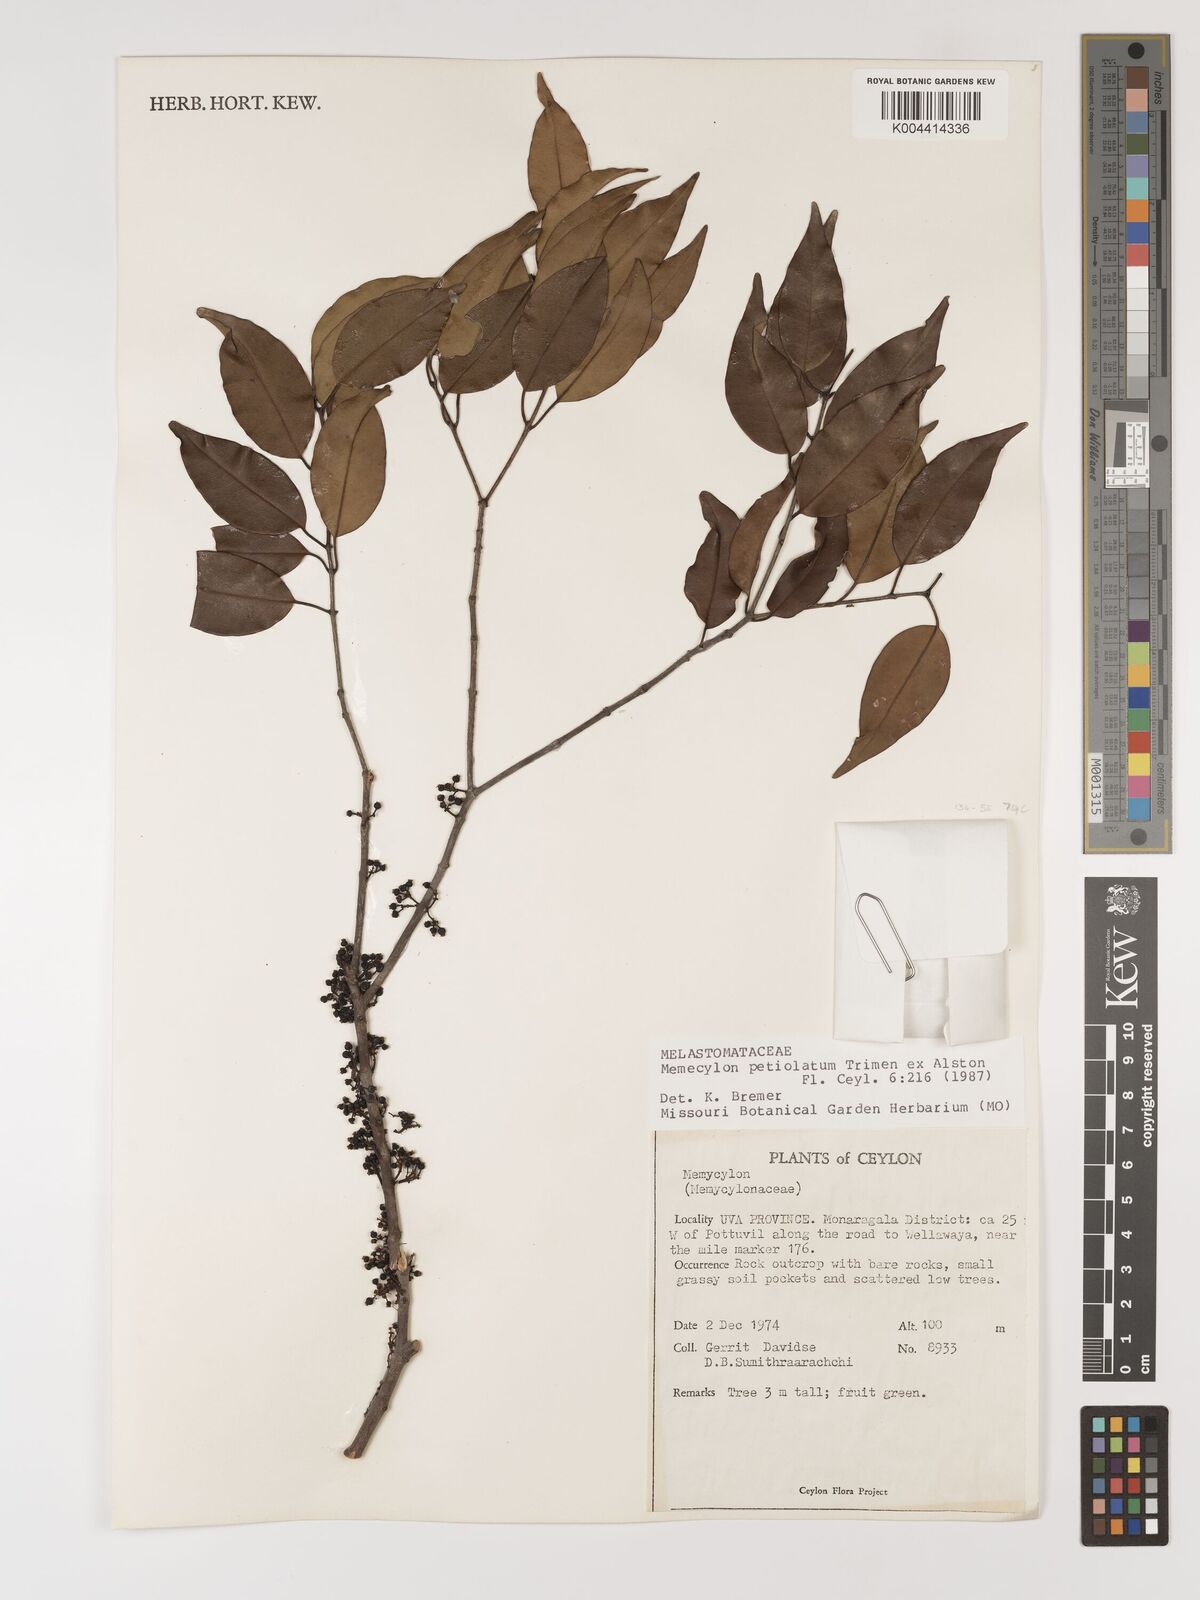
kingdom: Plantae
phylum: Tracheophyta
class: Magnoliopsida
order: Myrtales
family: Melastomataceae
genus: Memecylon
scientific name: Memecylon edule
